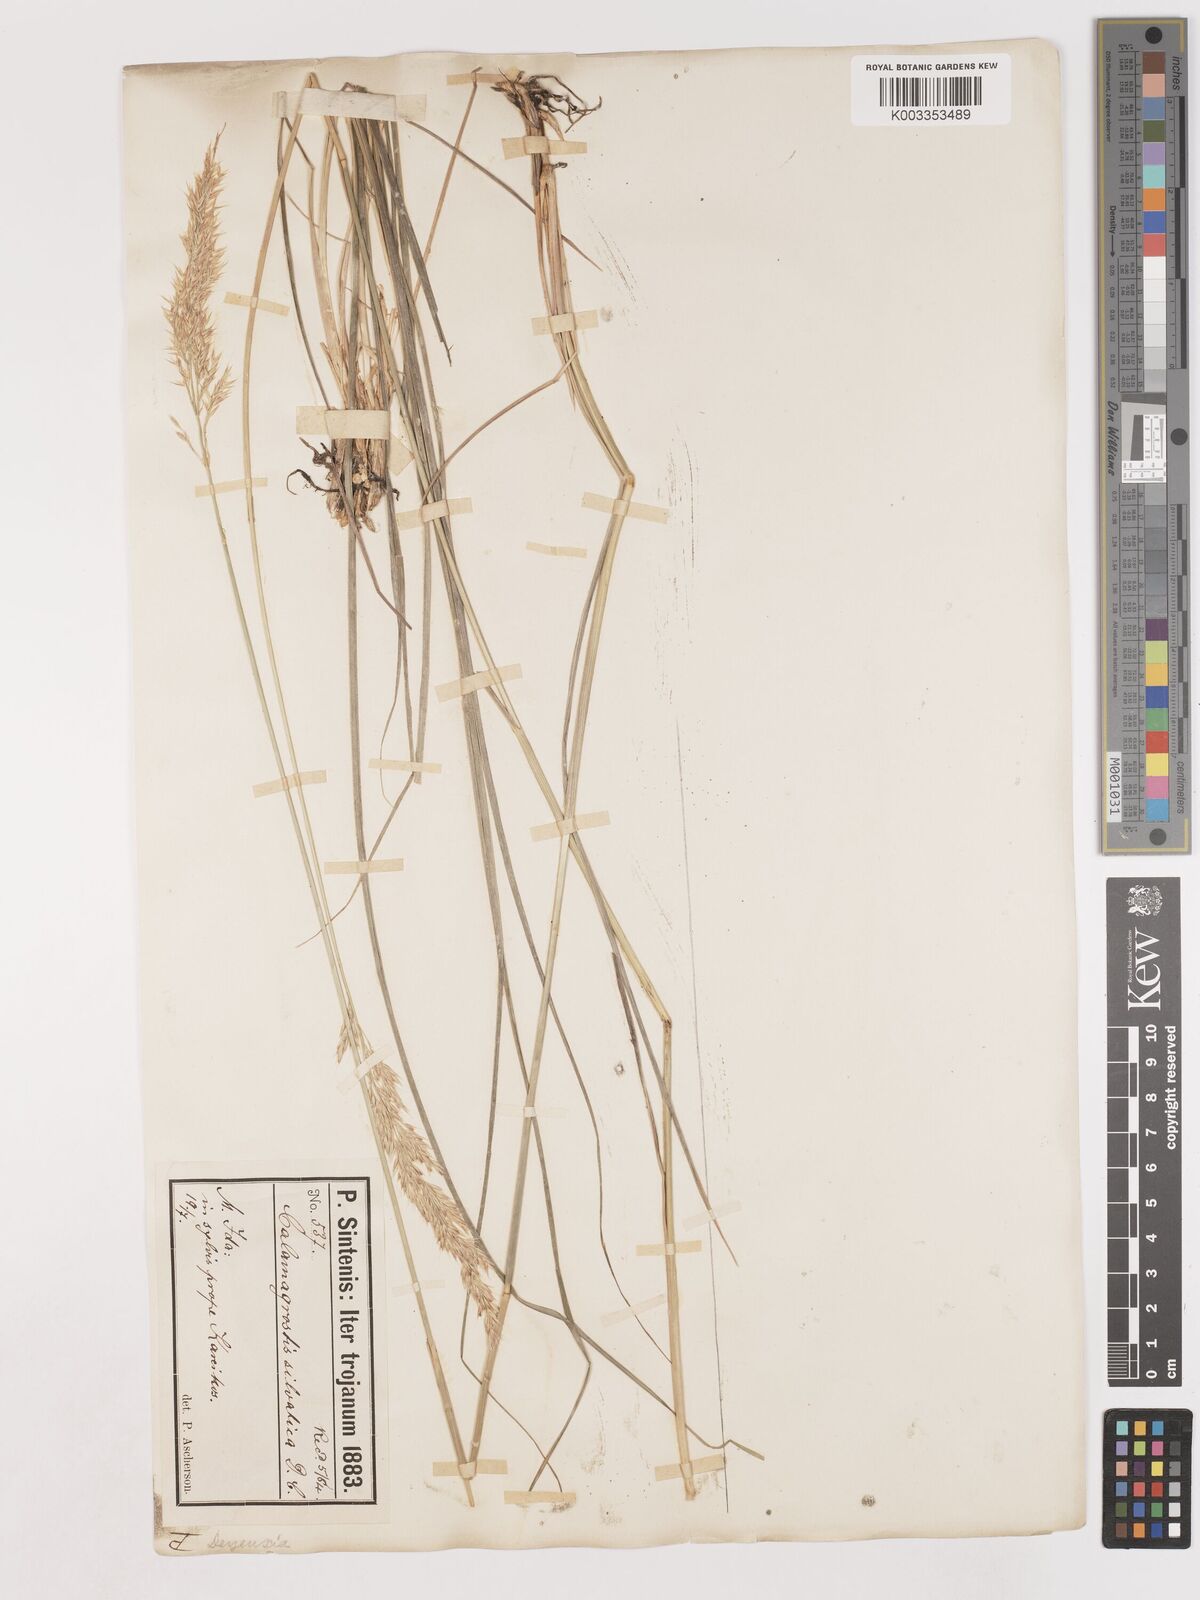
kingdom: Plantae
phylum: Tracheophyta
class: Liliopsida
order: Poales
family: Poaceae
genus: Calamagrostis
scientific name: Calamagrostis
